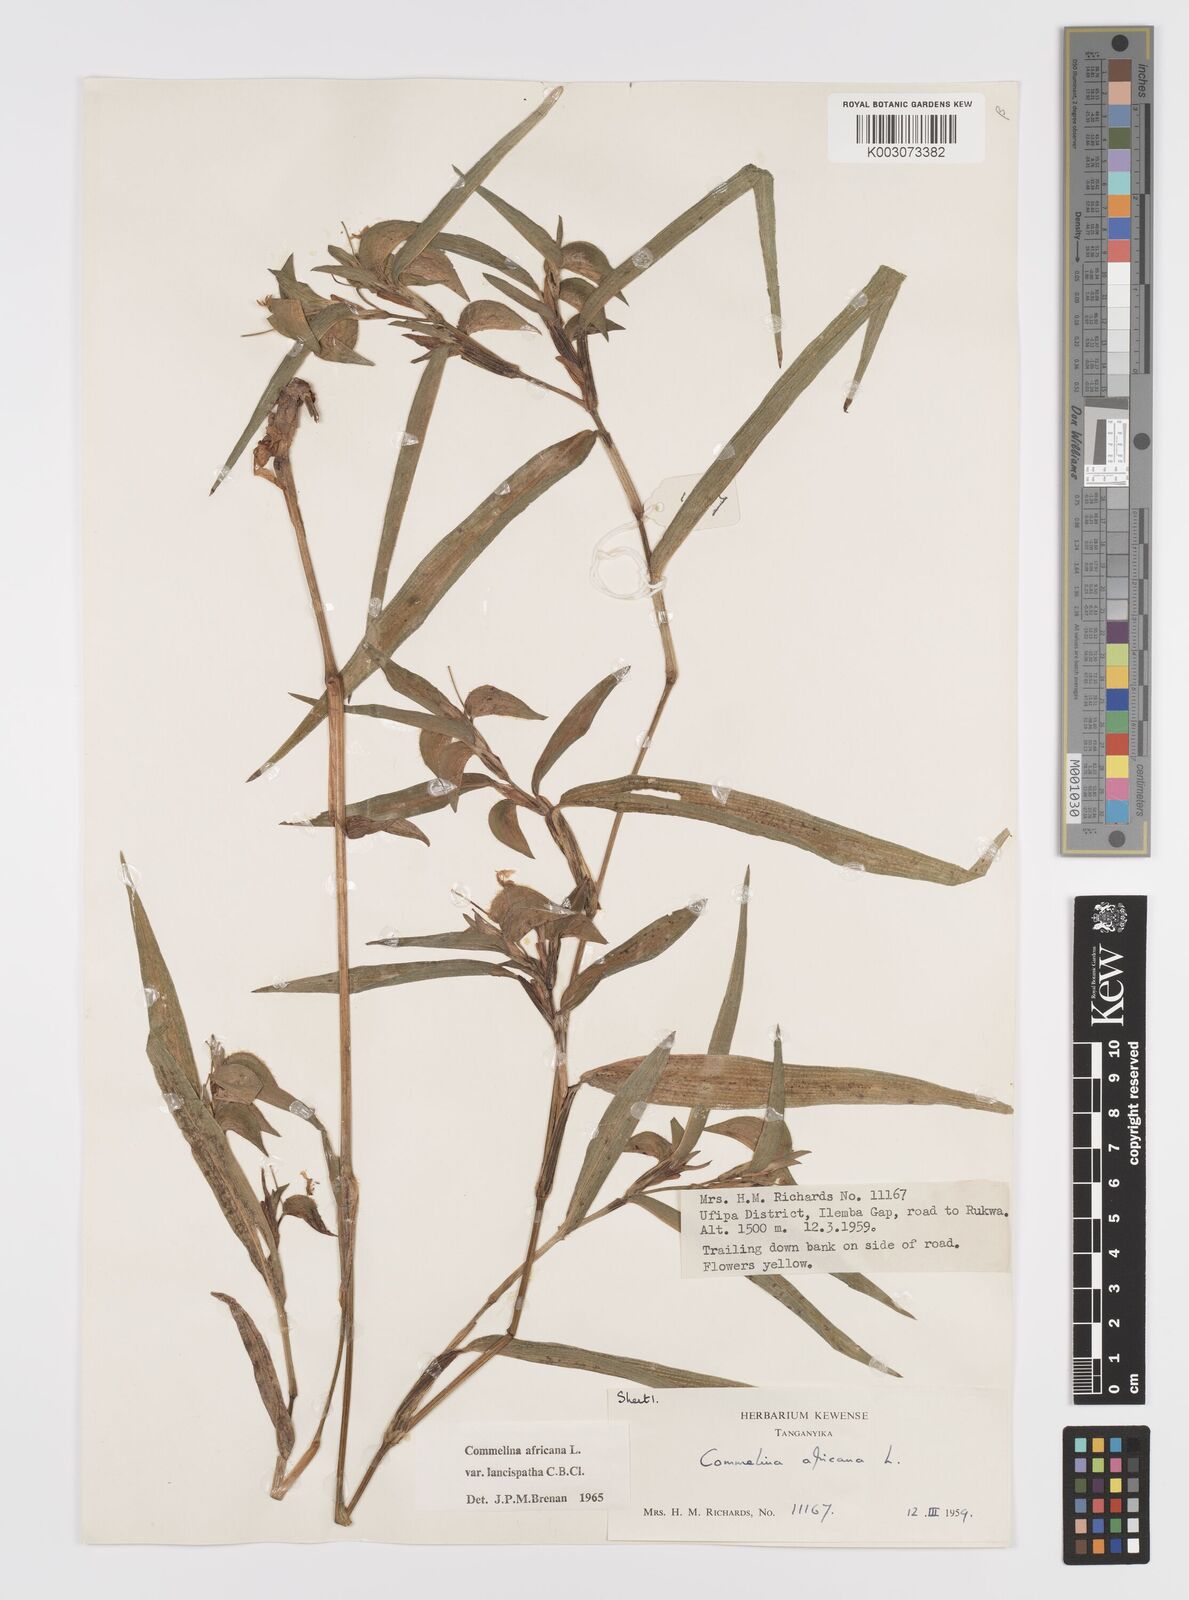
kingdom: Plantae
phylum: Tracheophyta
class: Liliopsida
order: Commelinales
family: Commelinaceae
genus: Commelina
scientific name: Commelina africana
